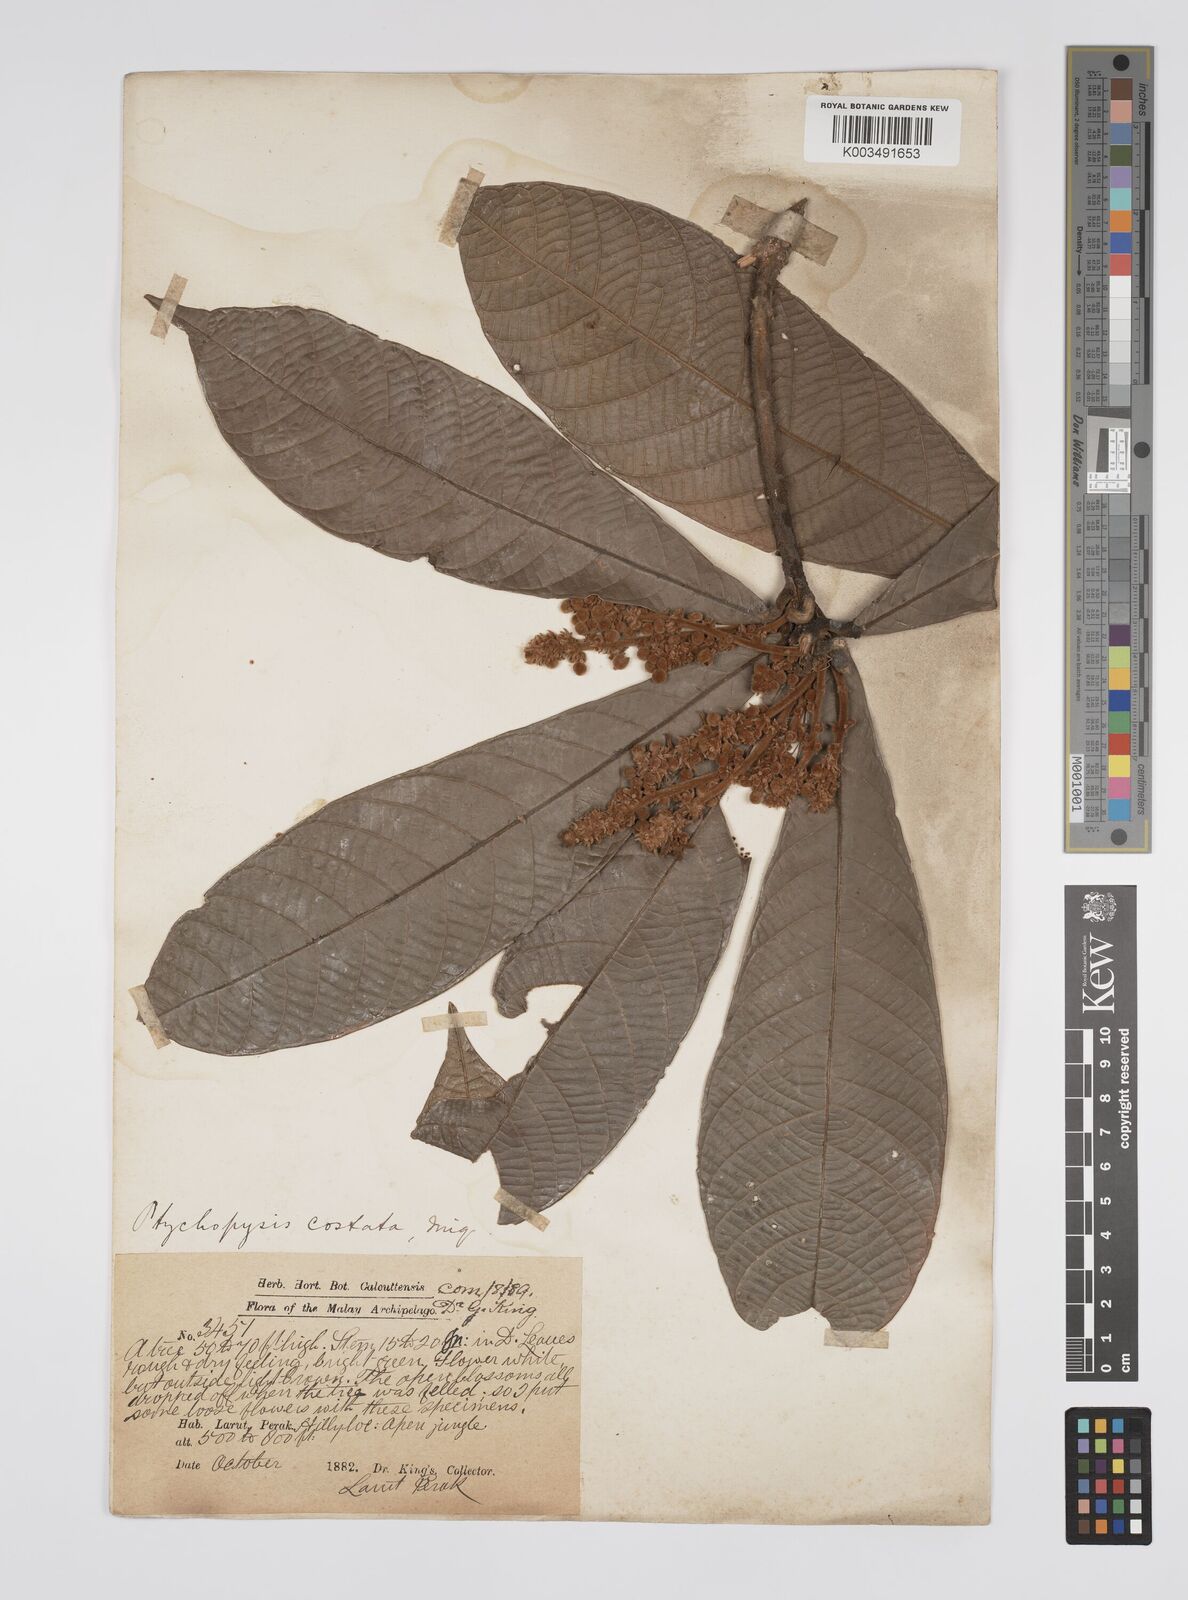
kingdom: Plantae
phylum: Tracheophyta
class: Magnoliopsida
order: Malpighiales
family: Euphorbiaceae
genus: Ptychopyxis
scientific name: Ptychopyxis costata
